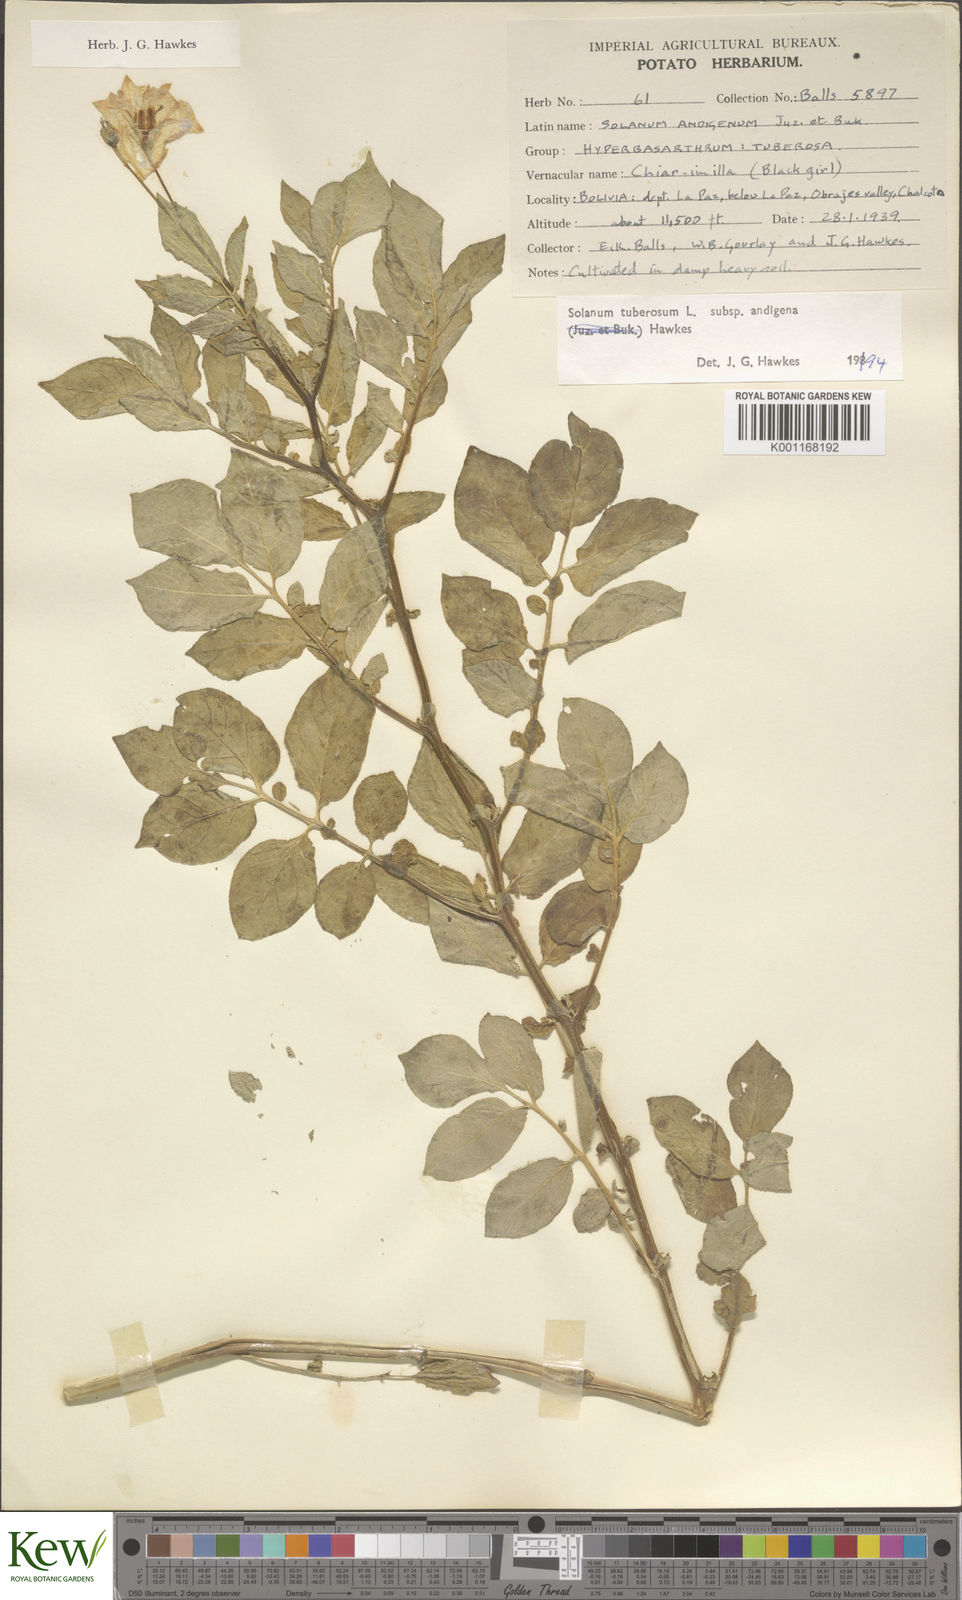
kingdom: Plantae
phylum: Tracheophyta
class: Magnoliopsida
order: Solanales
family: Solanaceae
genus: Solanum
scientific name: Solanum tuberosum
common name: Potato
